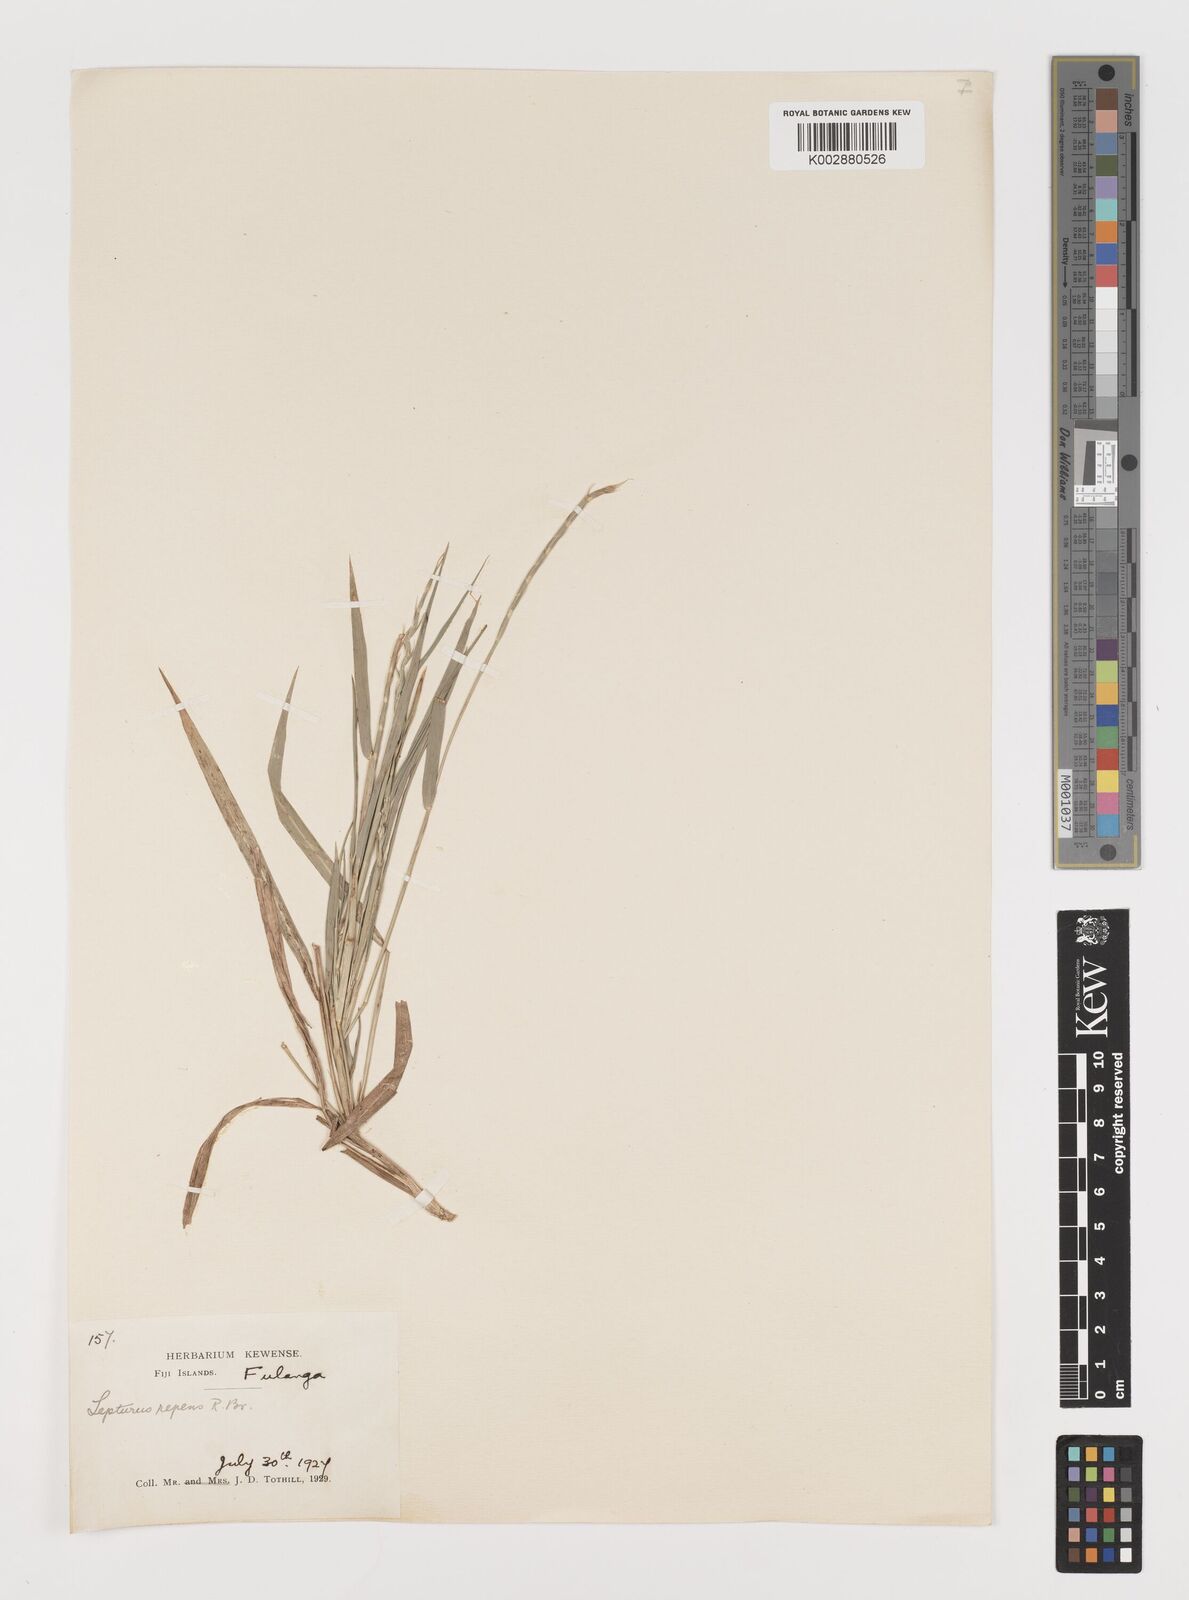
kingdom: Plantae
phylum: Tracheophyta
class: Liliopsida
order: Poales
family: Poaceae
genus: Lepturus
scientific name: Lepturus repens
